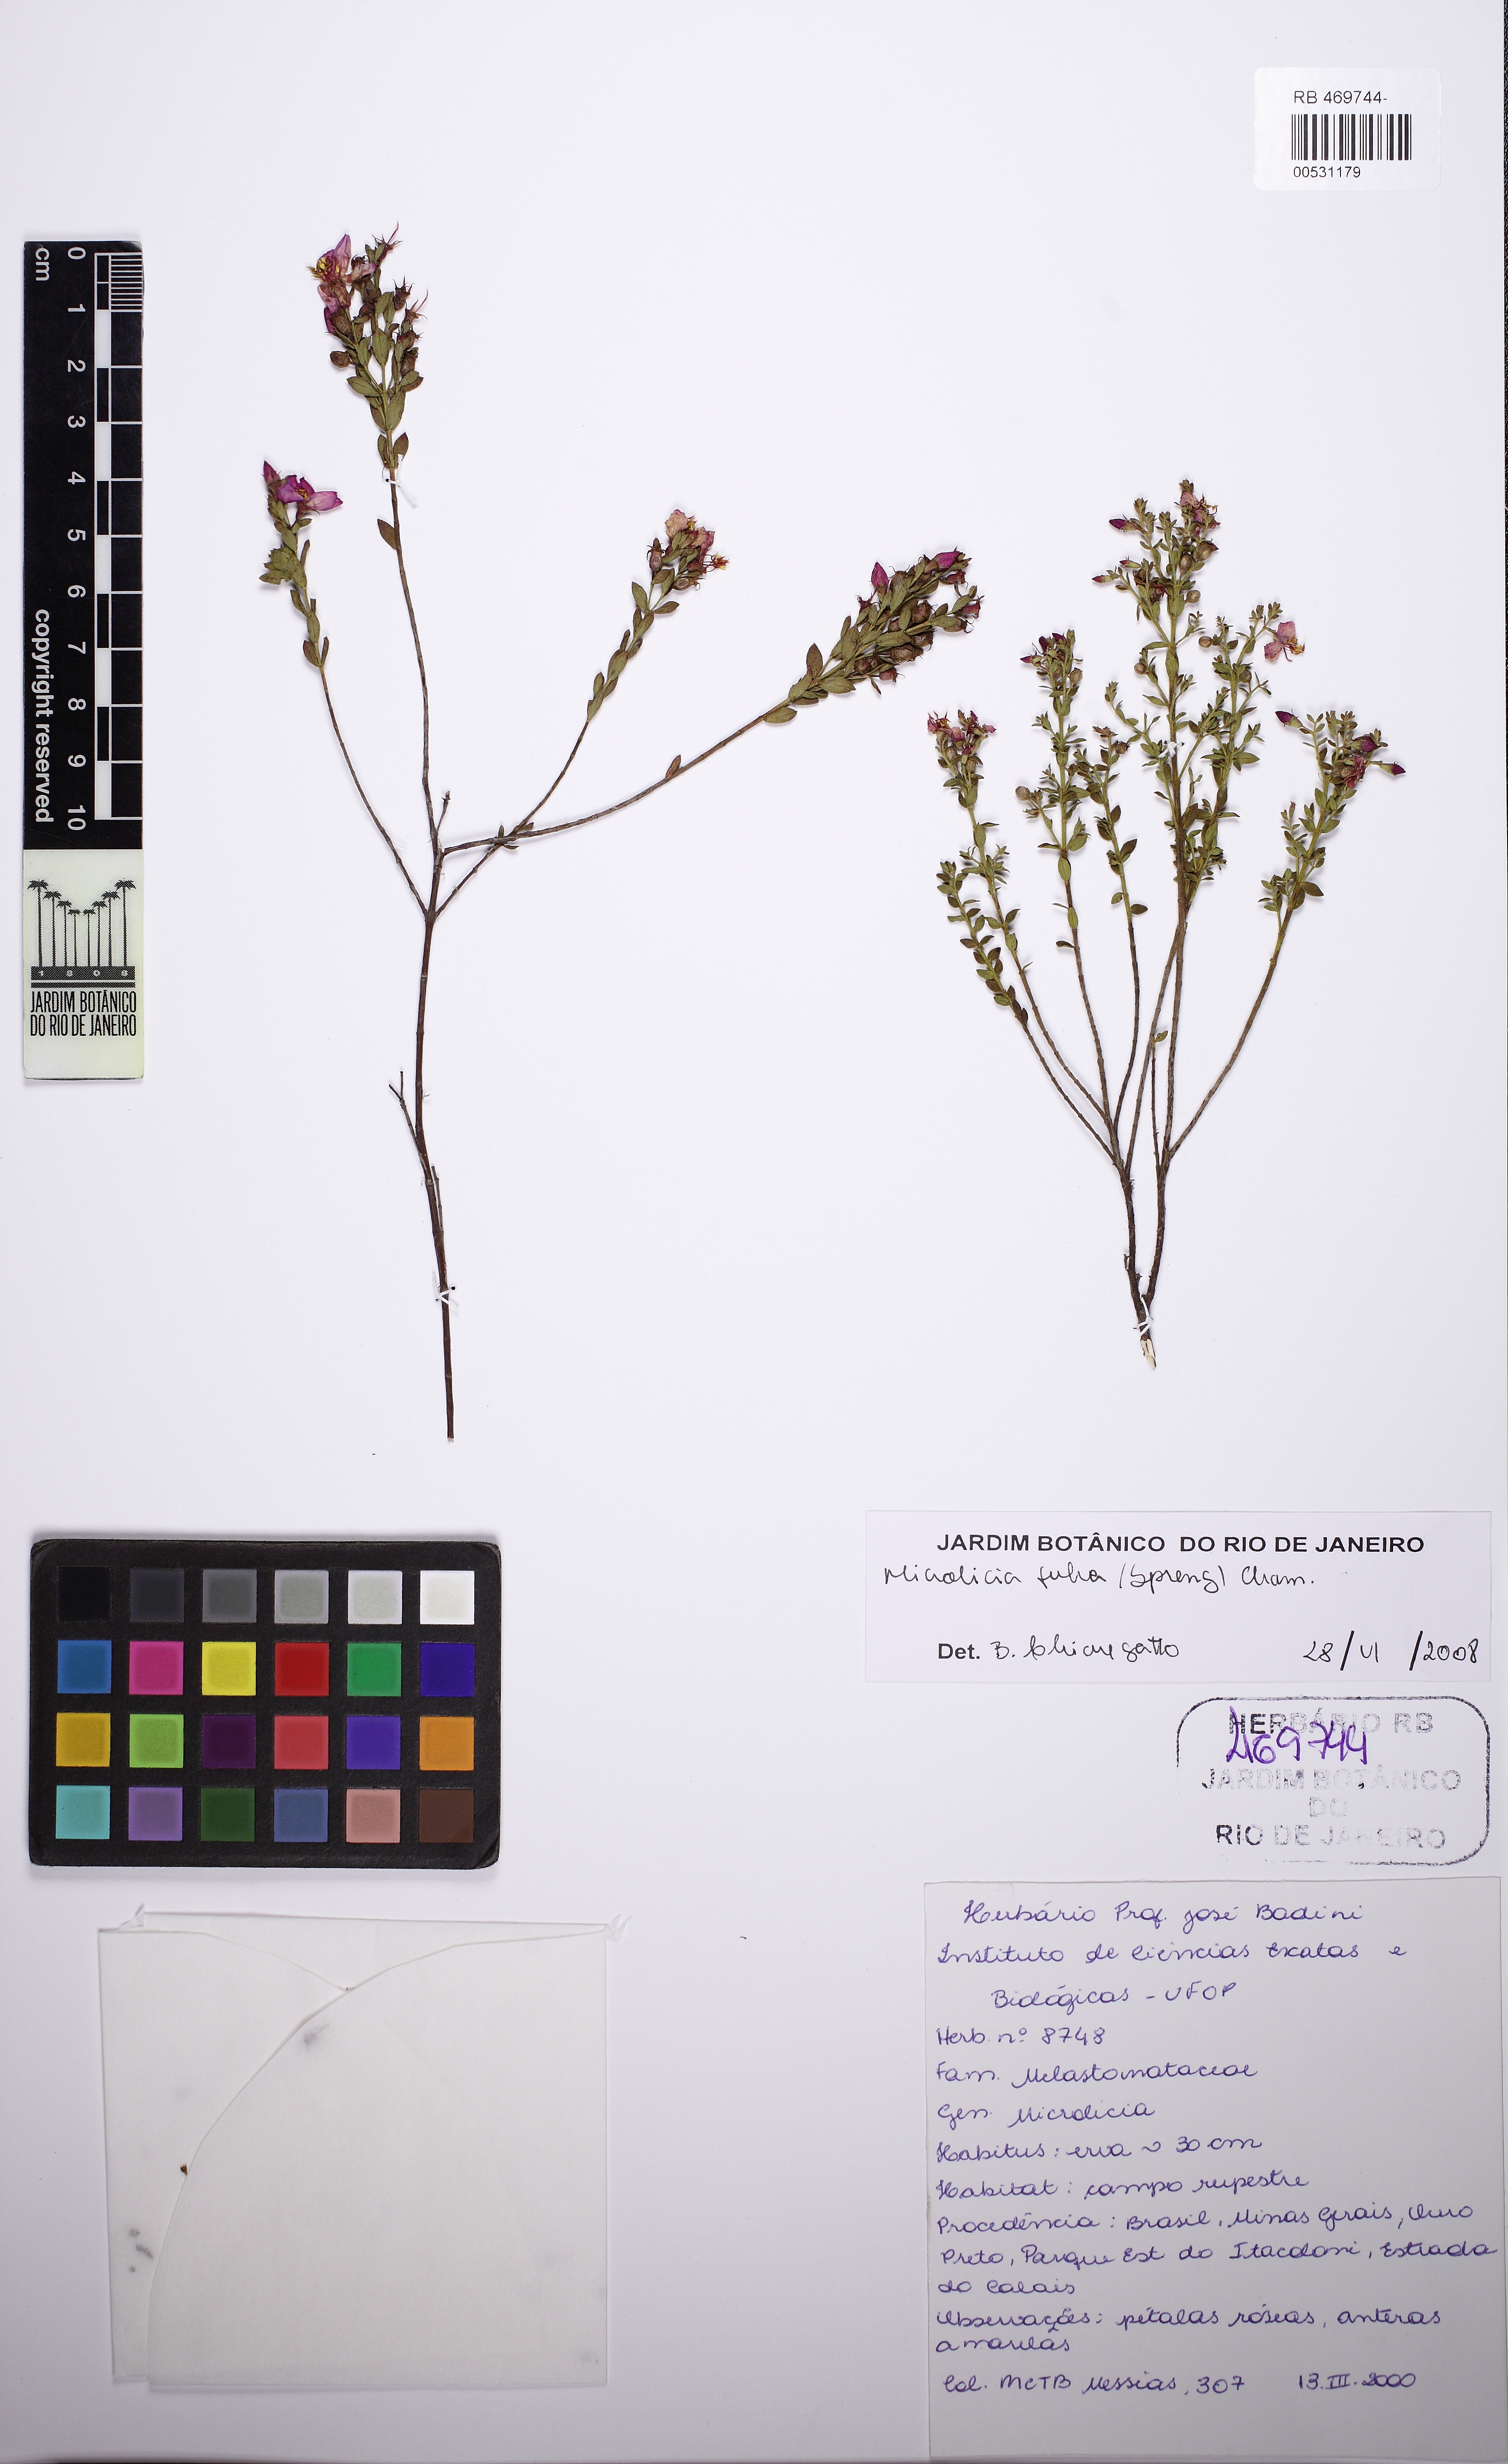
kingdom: Plantae
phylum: Tracheophyta
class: Magnoliopsida
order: Myrtales
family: Melastomataceae
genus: Microlicia
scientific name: Microlicia fulva
